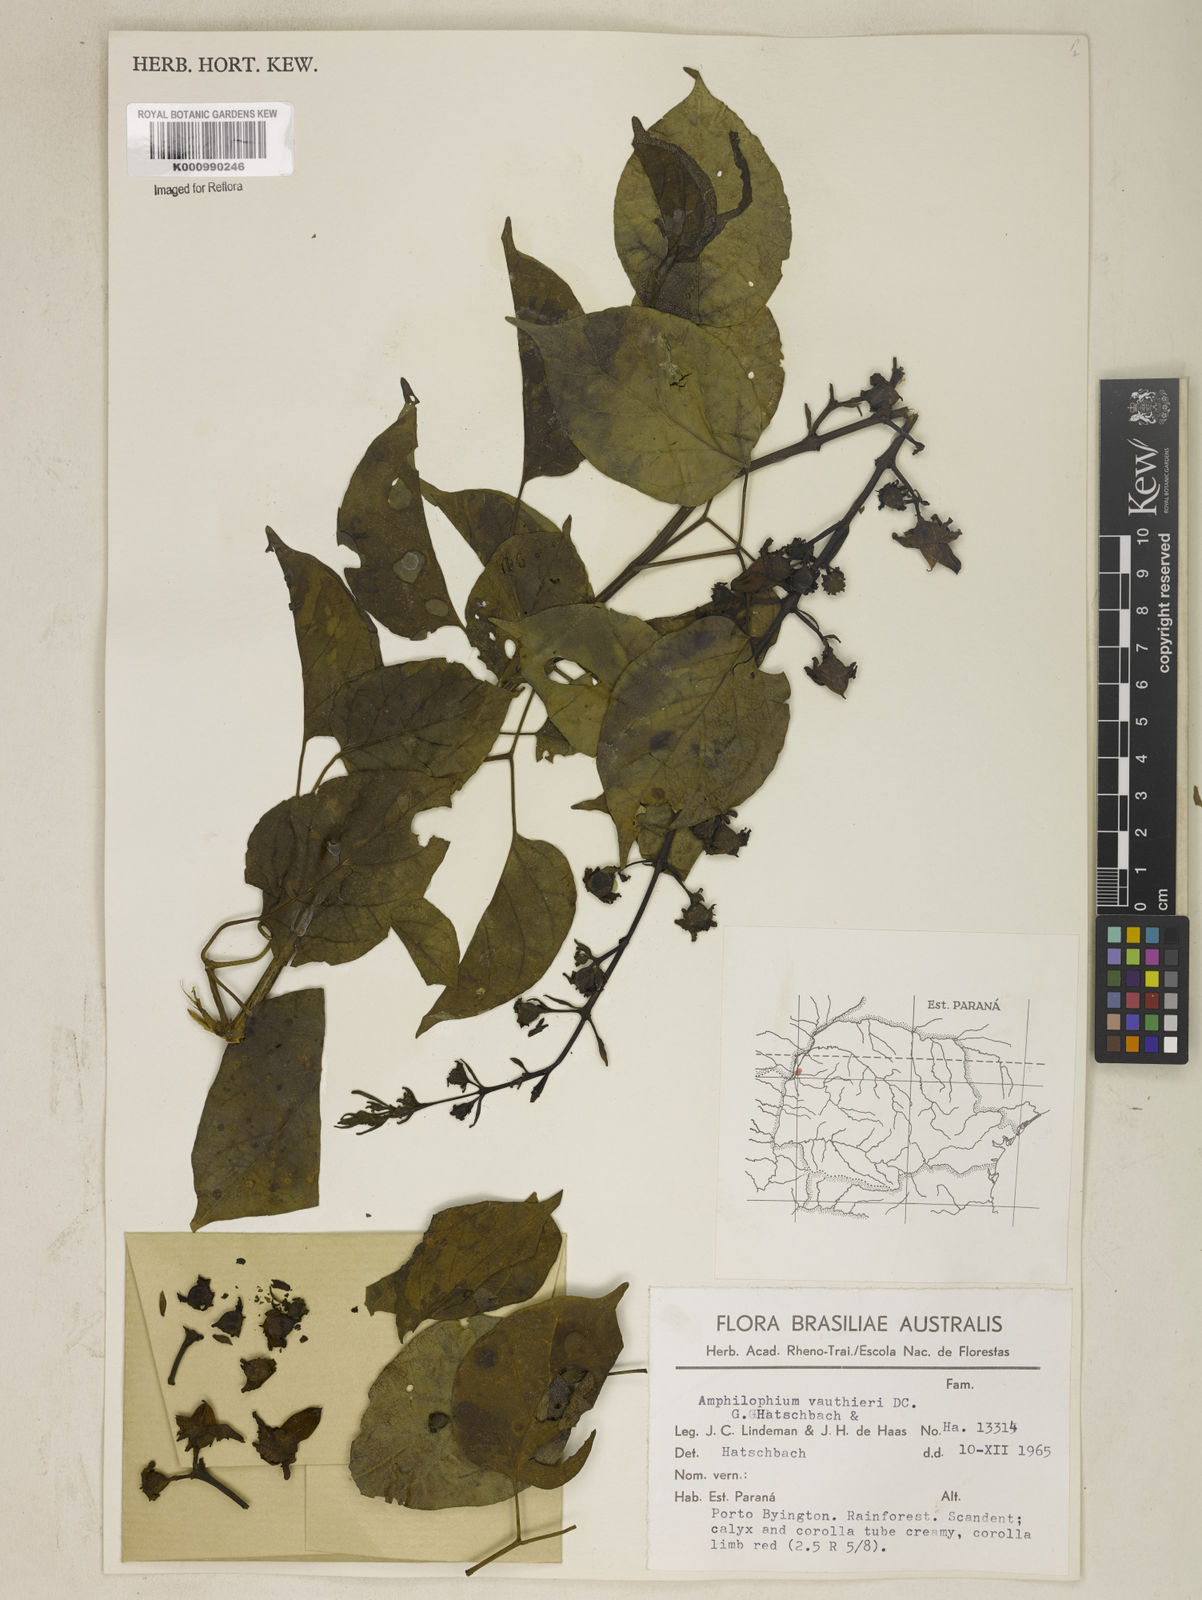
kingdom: Plantae
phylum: Tracheophyta
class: Magnoliopsida
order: Lamiales
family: Bignoniaceae
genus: Amphilophium
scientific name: Amphilophium paniculatum
